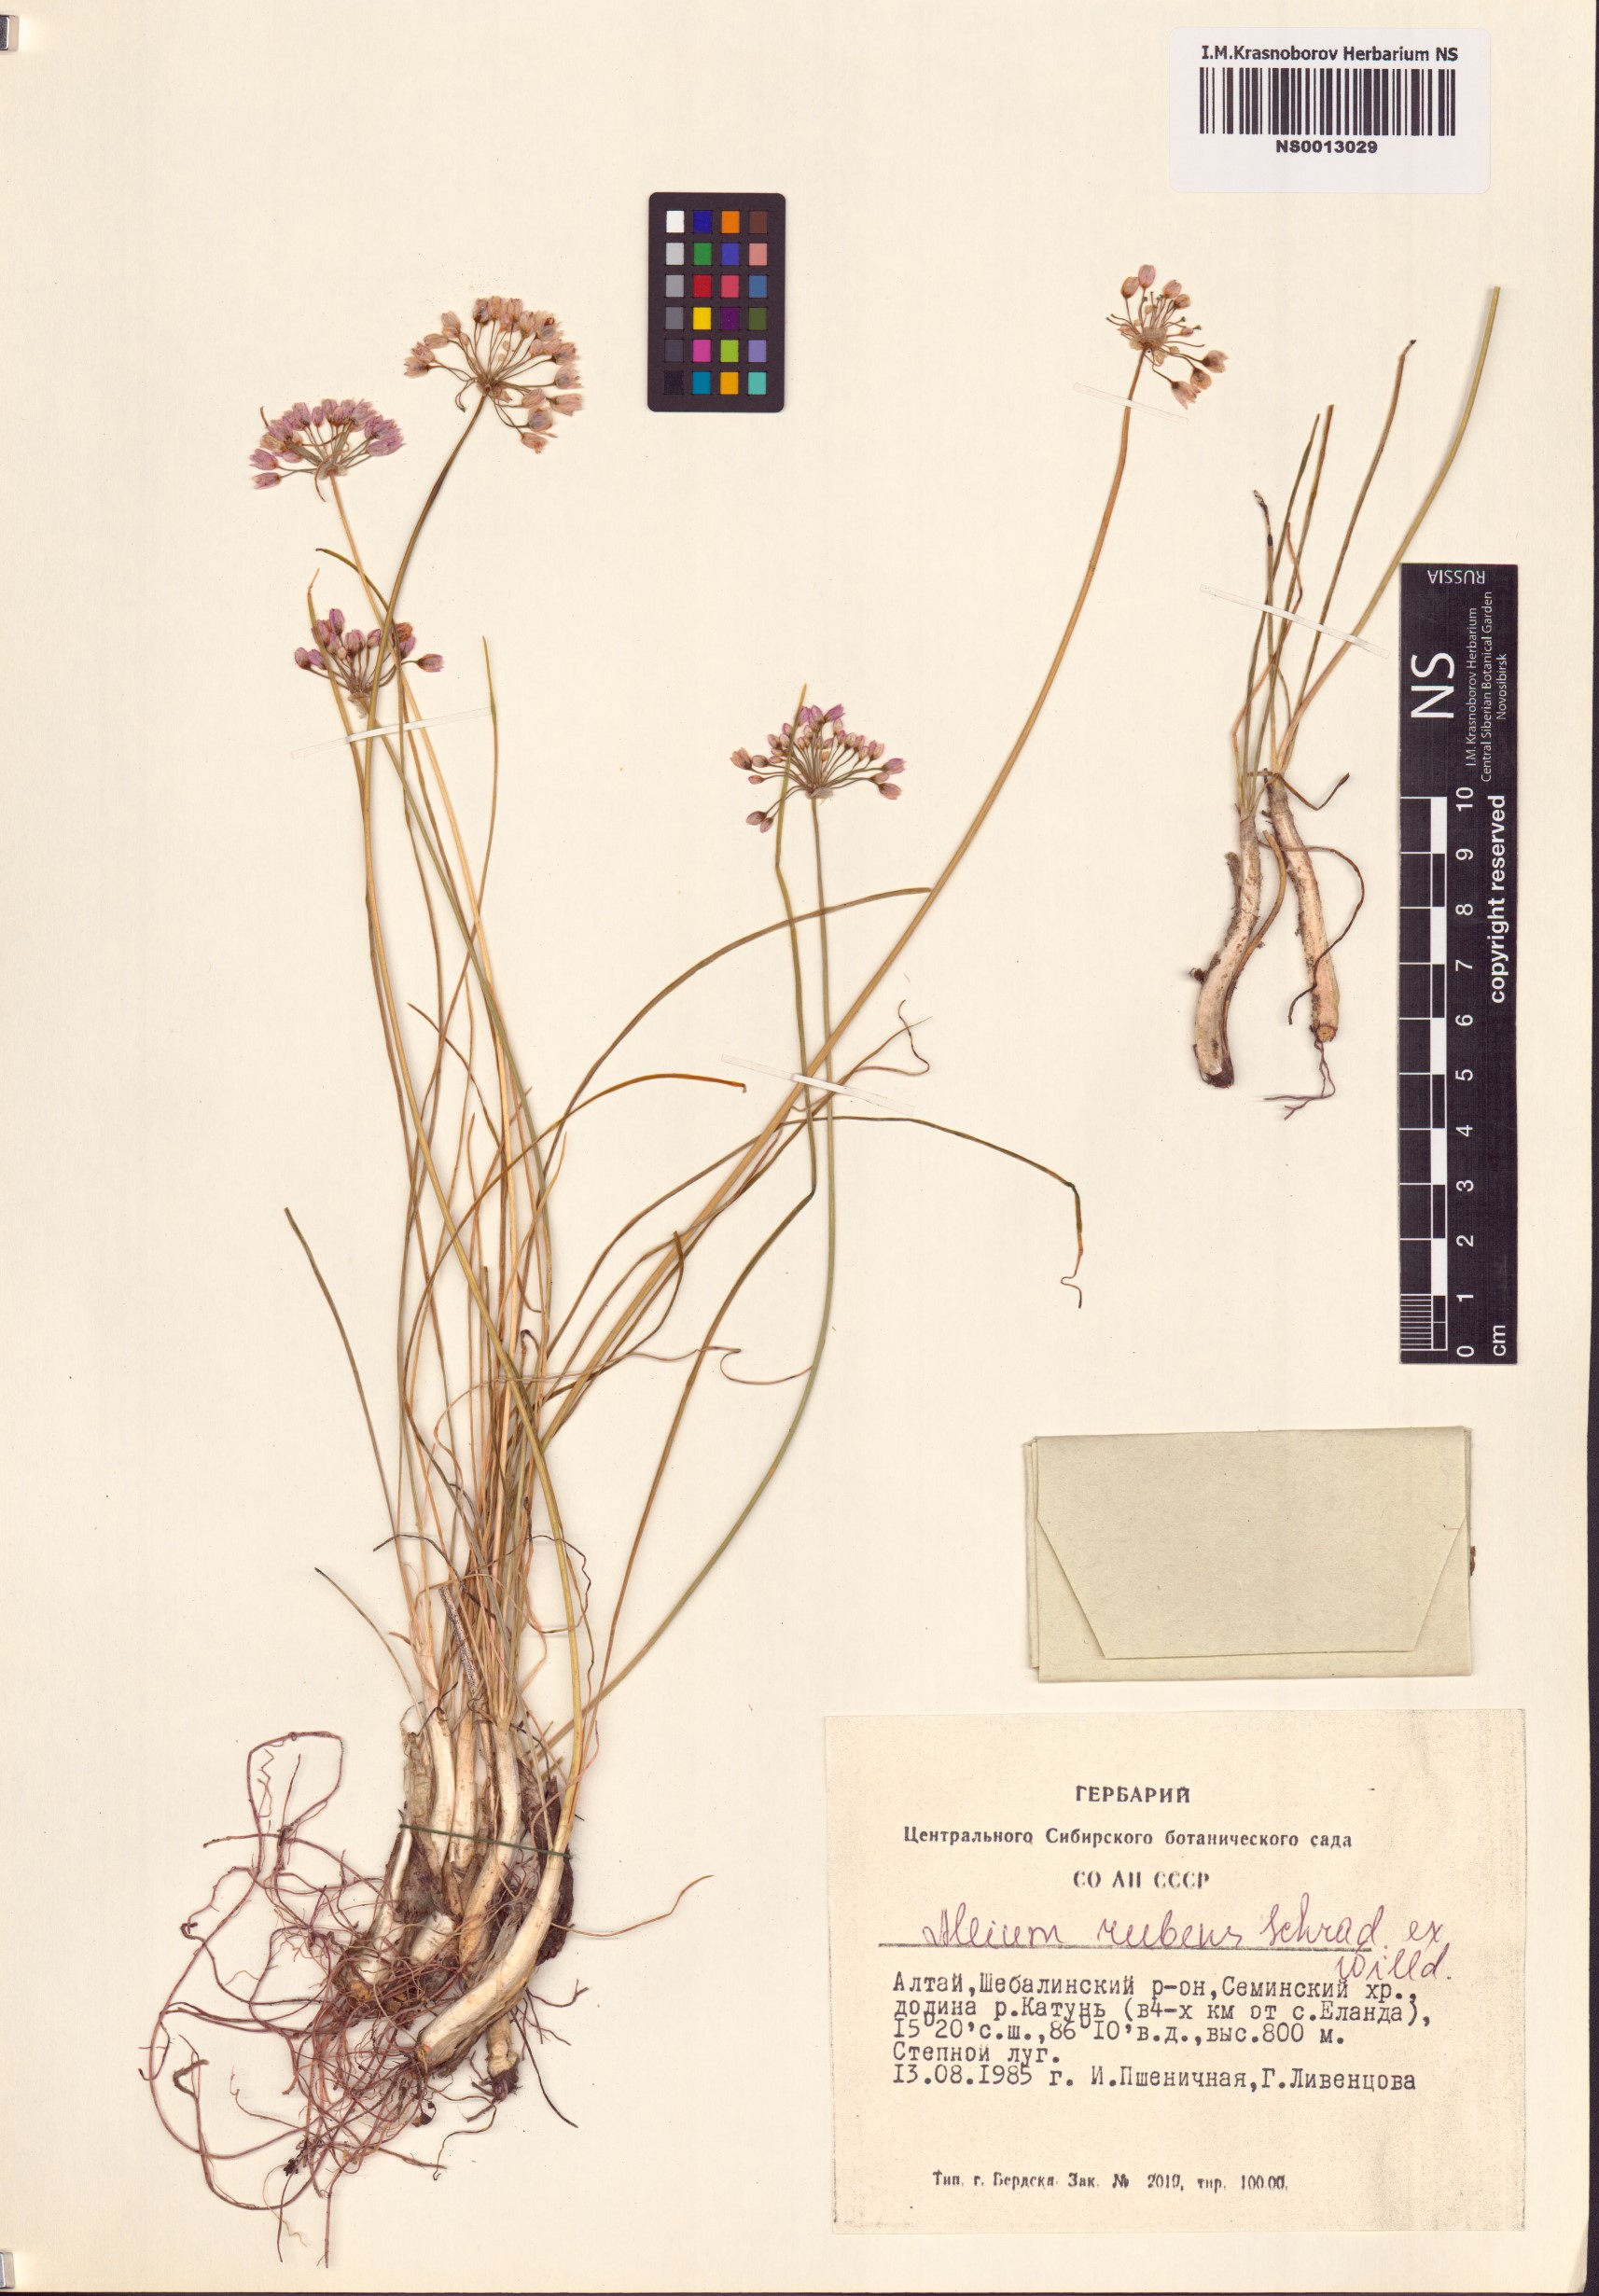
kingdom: Plantae
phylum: Tracheophyta
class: Liliopsida
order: Asparagales
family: Amaryllidaceae
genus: Allium
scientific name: Allium rubens
